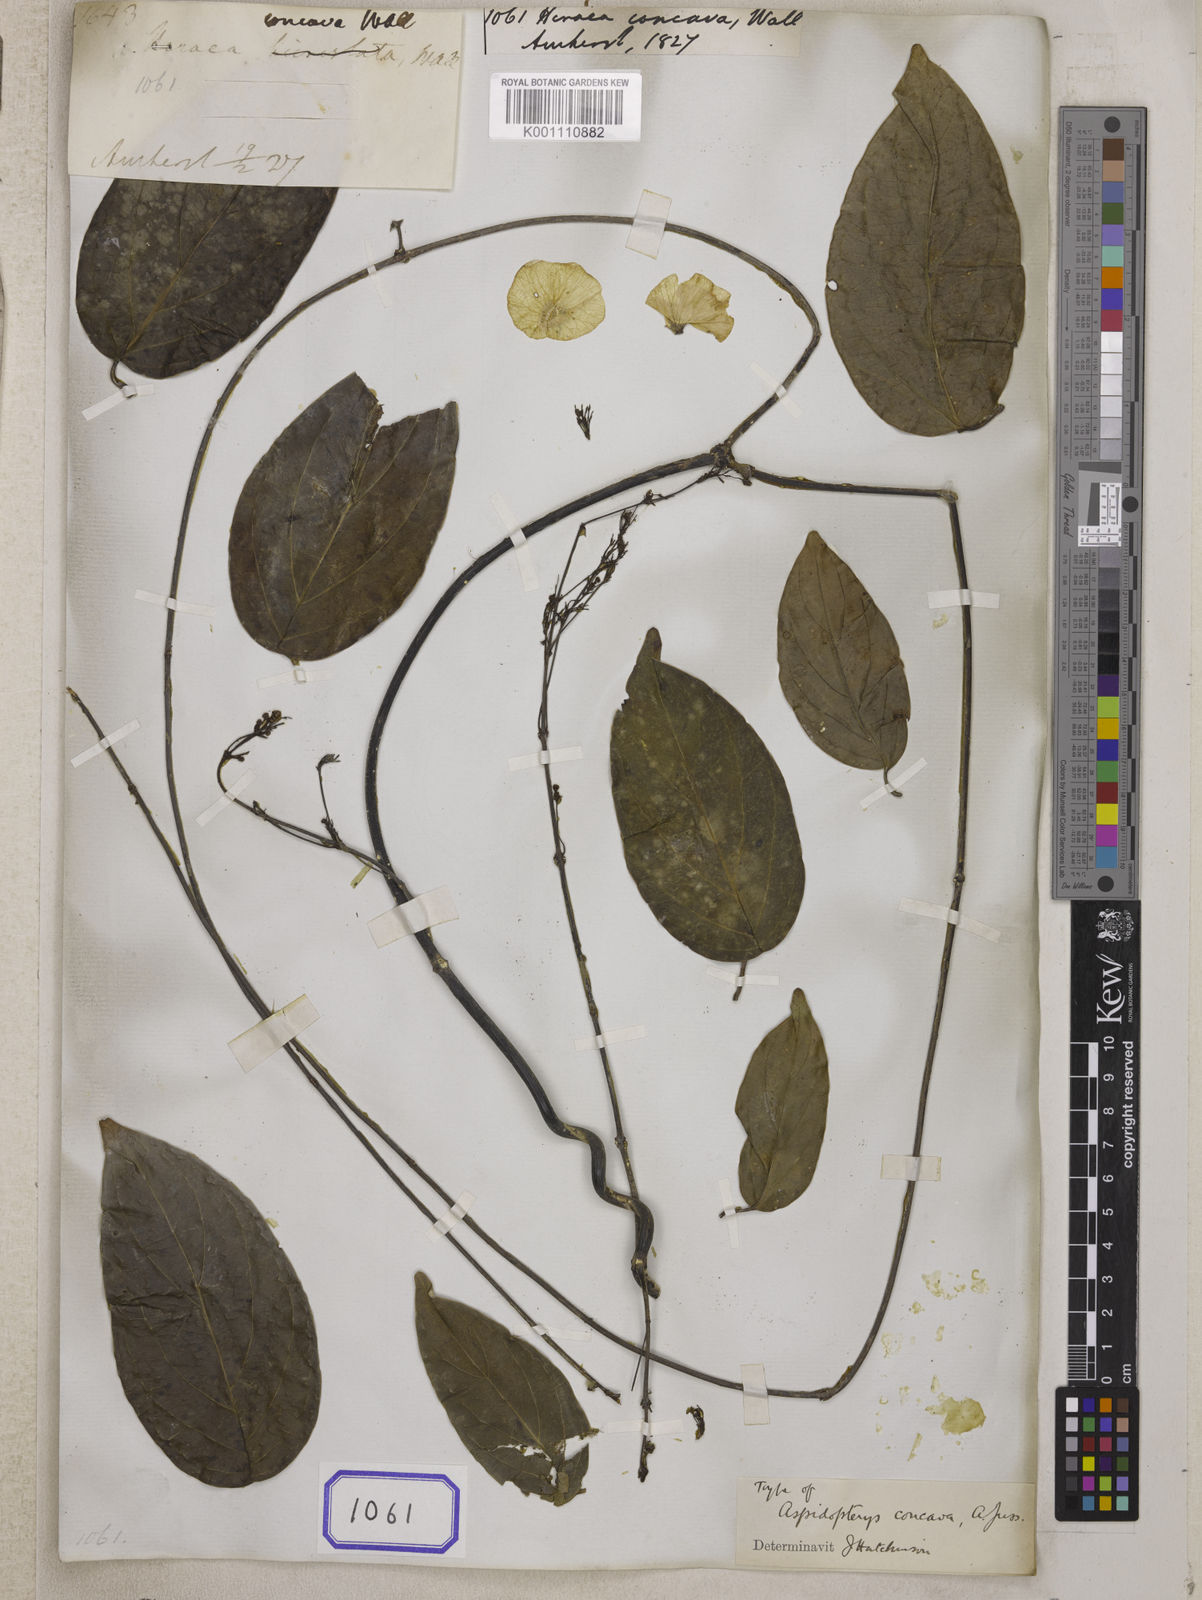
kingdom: Plantae
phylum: Tracheophyta
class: Magnoliopsida
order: Malpighiales
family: Malpighiaceae
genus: Aspidopterys
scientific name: Aspidopterys concava
